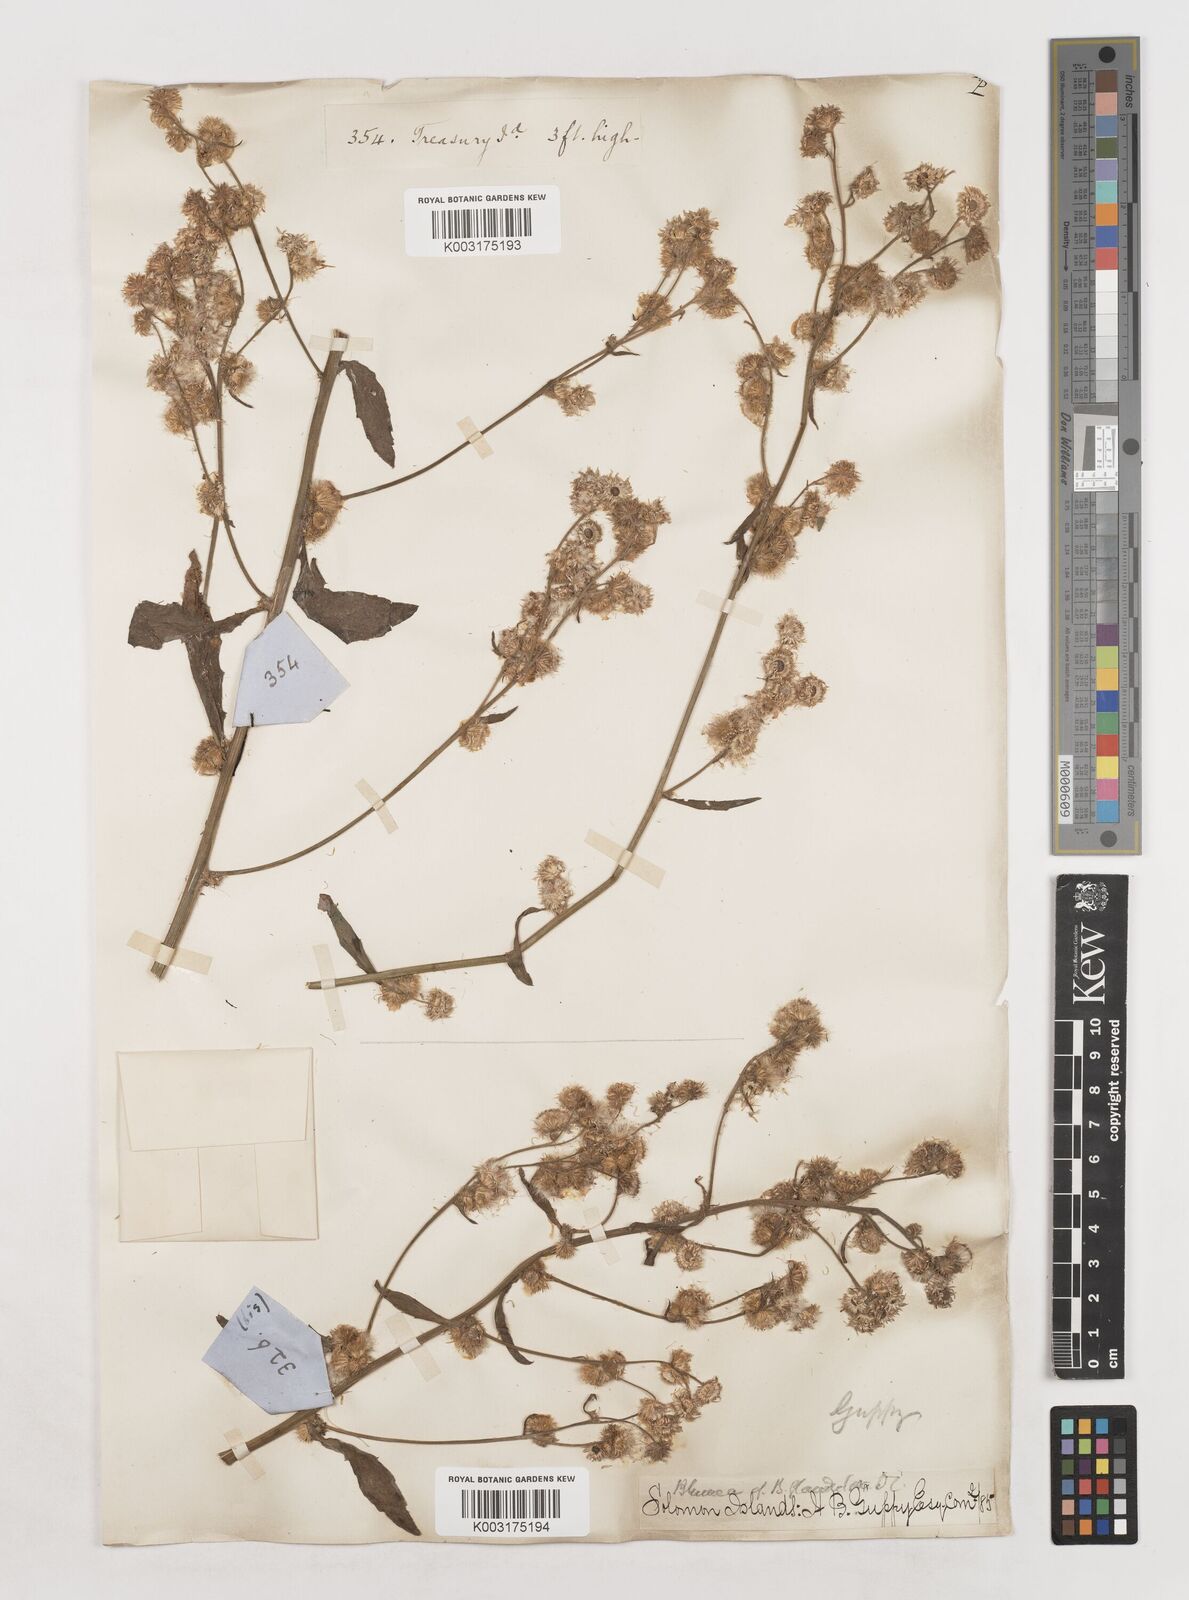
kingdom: Plantae
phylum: Tracheophyta
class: Magnoliopsida
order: Asterales
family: Asteraceae
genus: Blumea
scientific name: Blumea
